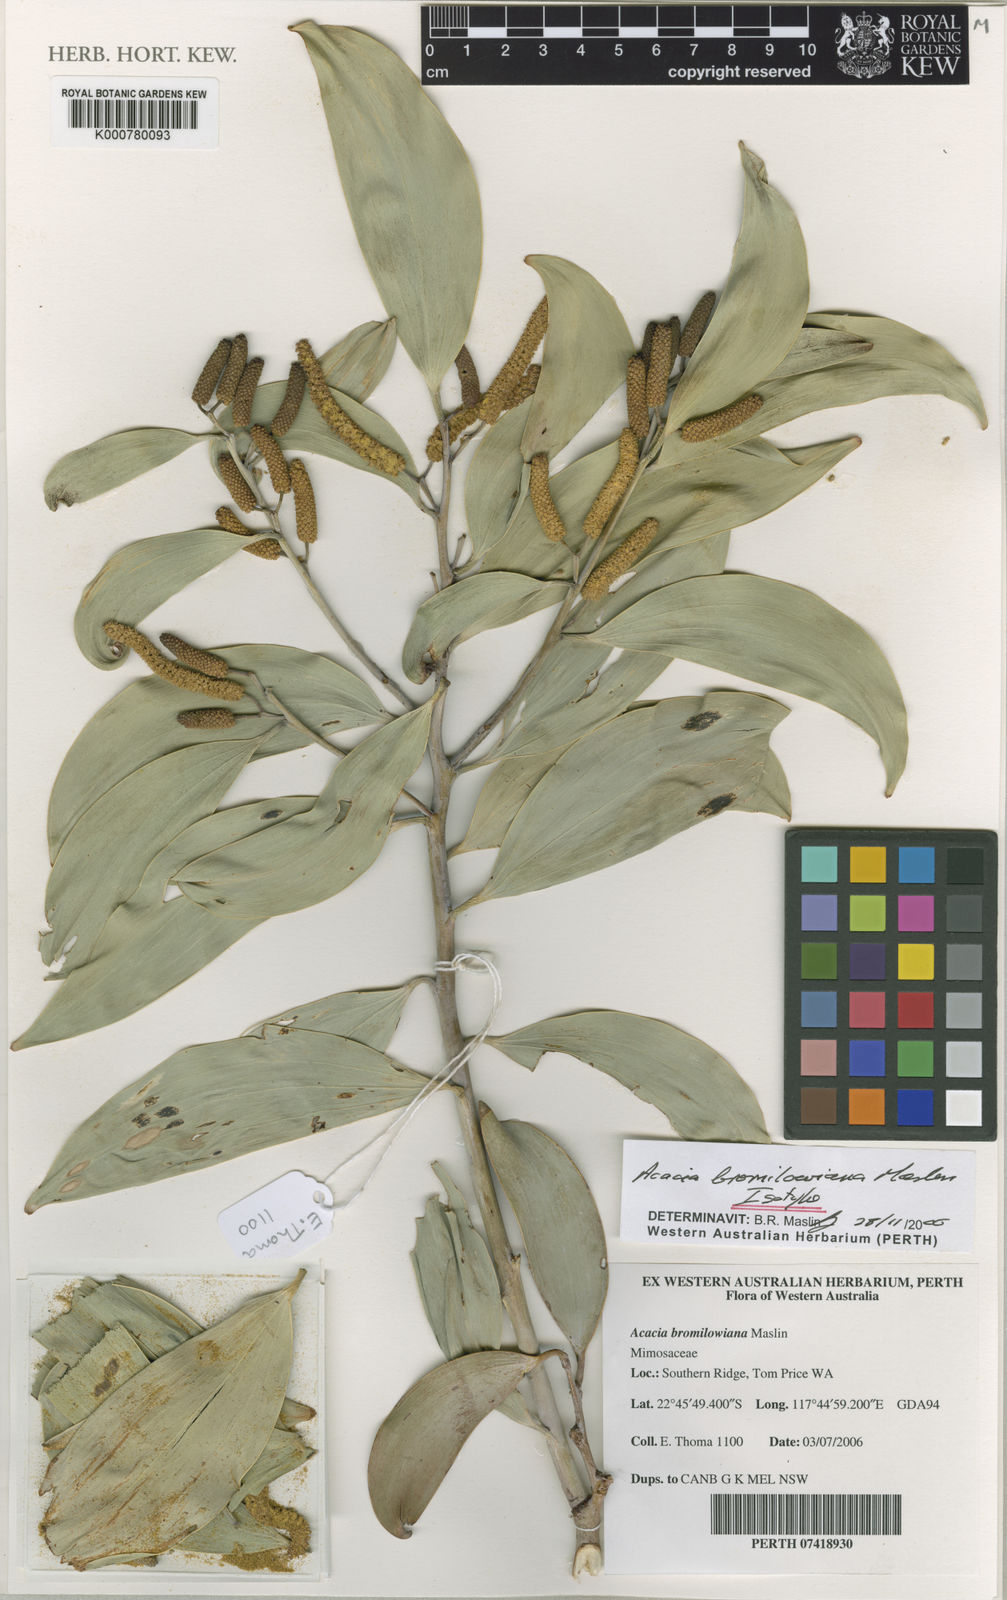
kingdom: Plantae
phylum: Tracheophyta
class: Magnoliopsida
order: Fabales
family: Fabaceae
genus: Acacia
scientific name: Acacia bromilowiana
